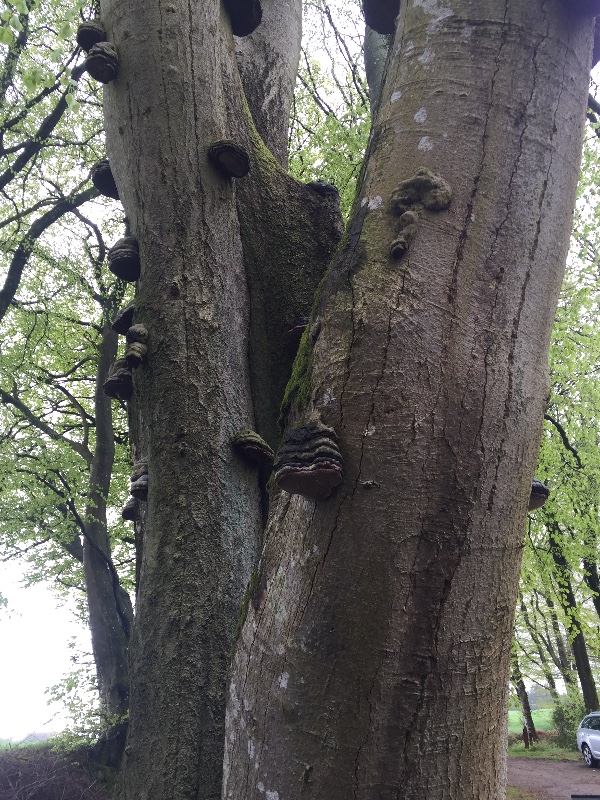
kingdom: Fungi
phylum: Basidiomycota
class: Agaricomycetes
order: Polyporales
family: Polyporaceae
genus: Fomes
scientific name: Fomes fomentarius
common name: tøndersvamp
